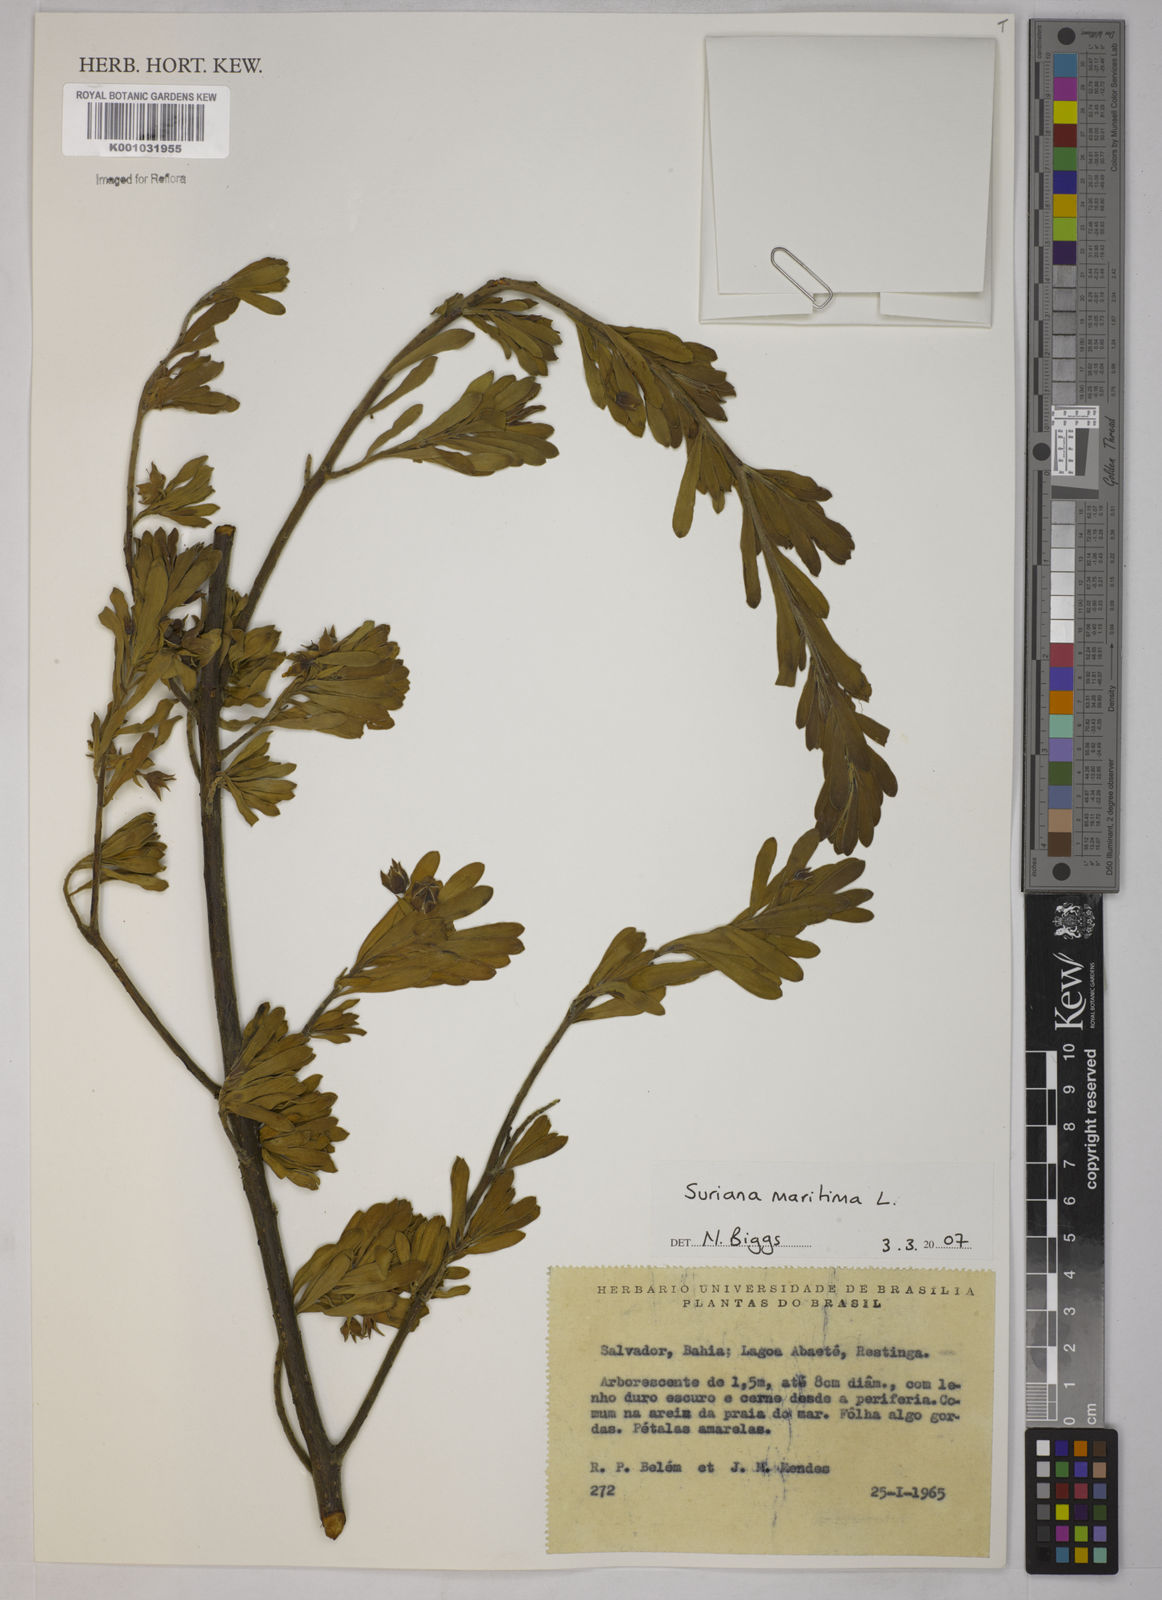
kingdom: Plantae
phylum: Tracheophyta
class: Magnoliopsida
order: Fabales
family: Surianaceae
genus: Suriana
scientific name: Suriana maritima
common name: Bay-cedar
